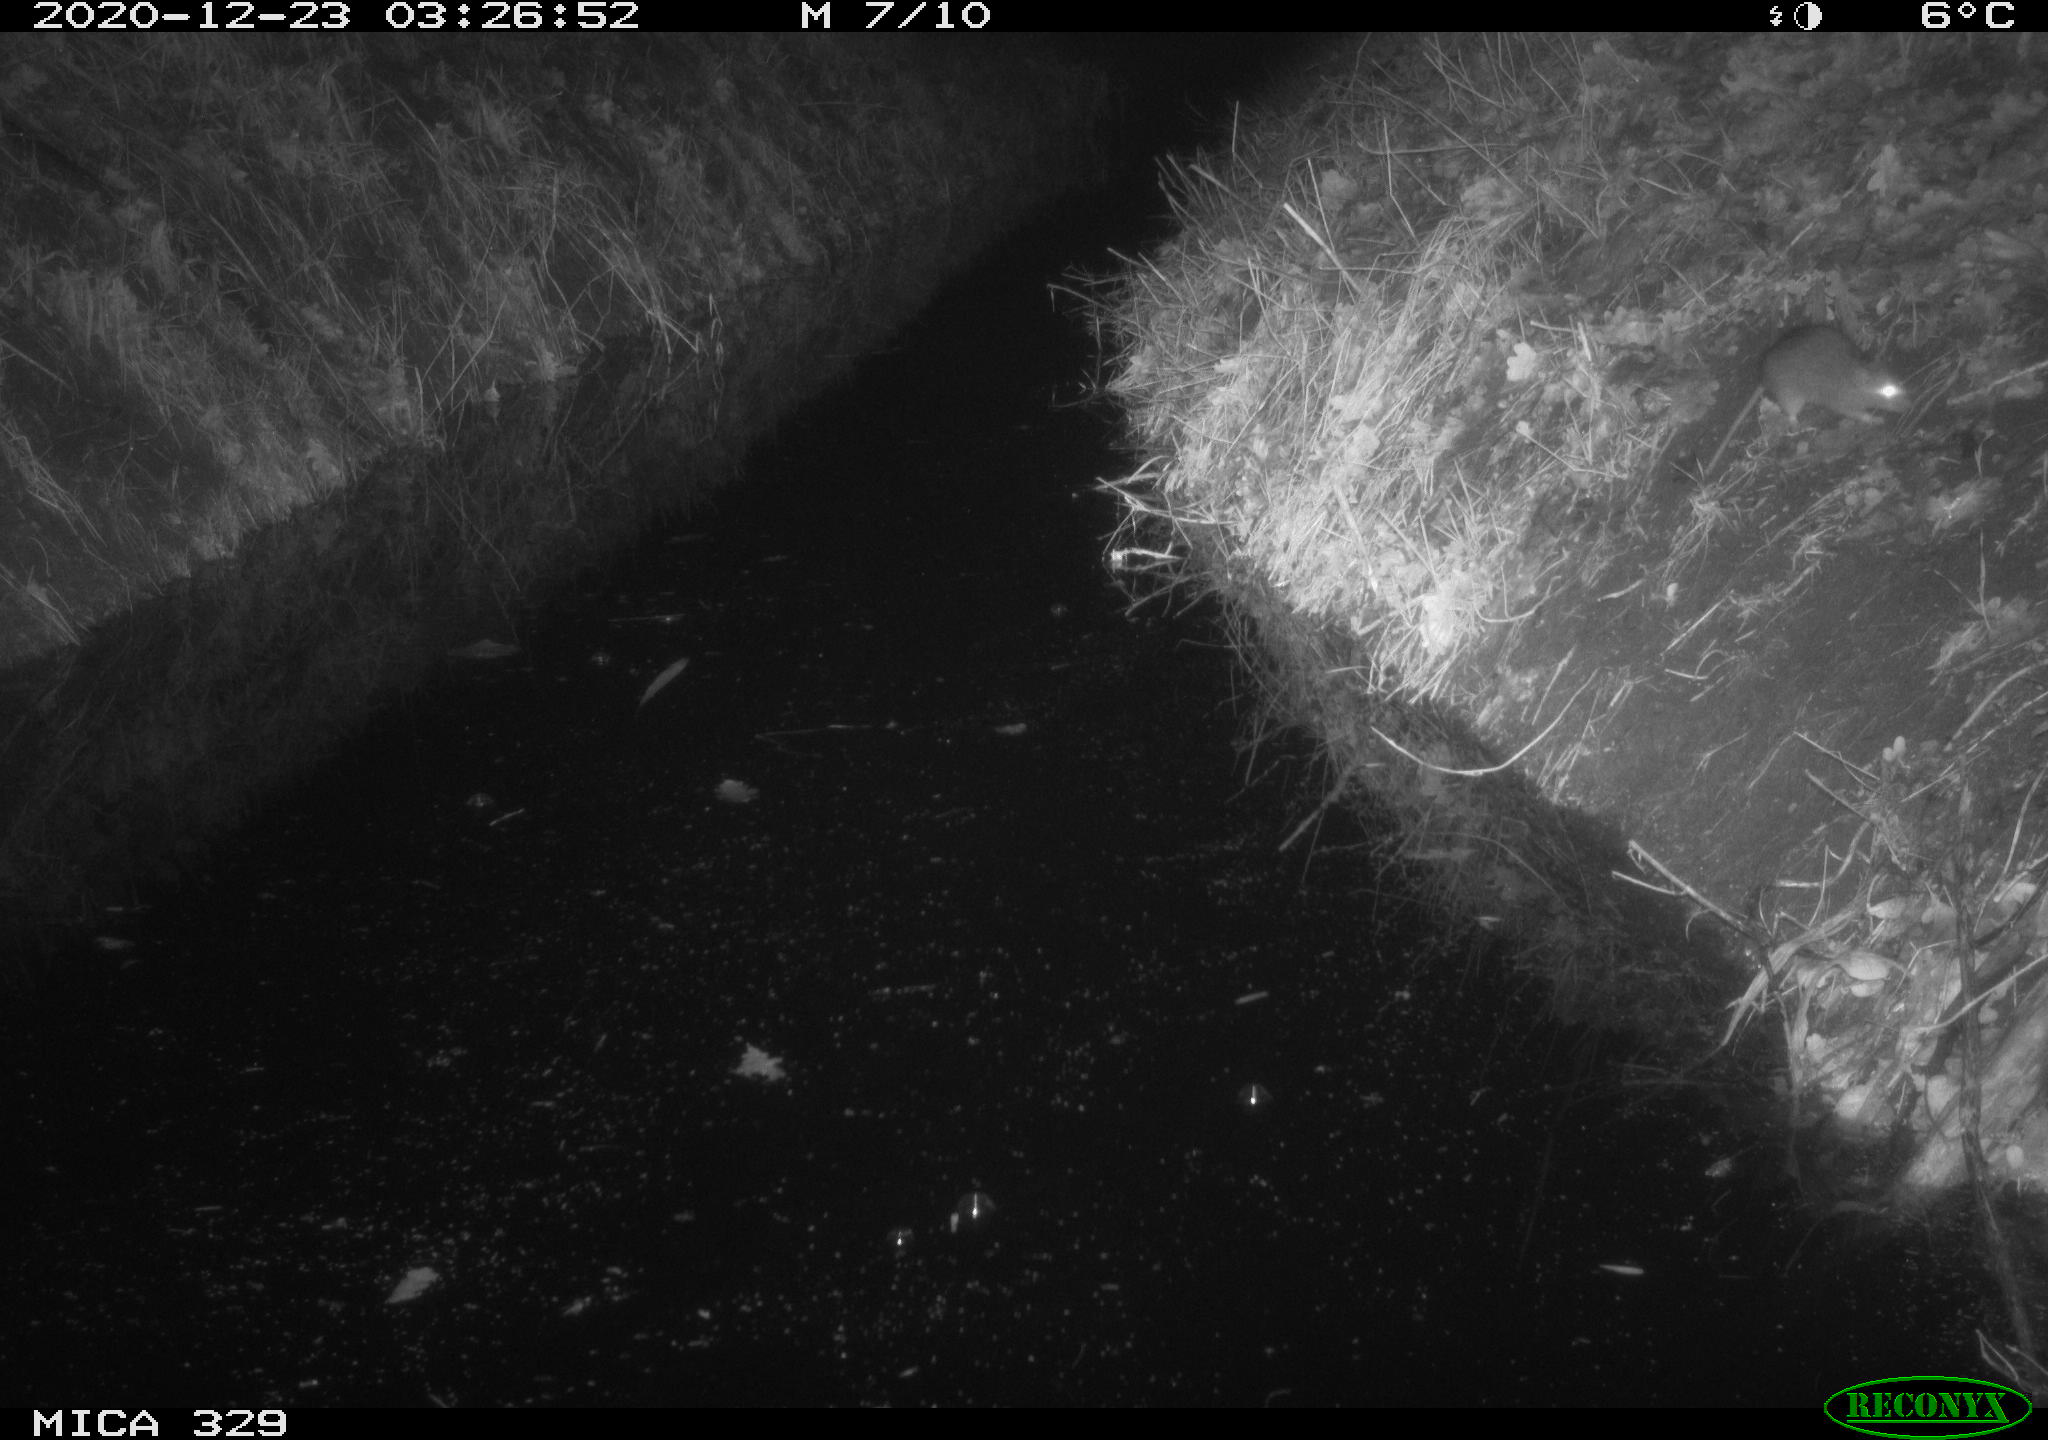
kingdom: Animalia
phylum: Chordata
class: Mammalia
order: Rodentia
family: Muridae
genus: Rattus
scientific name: Rattus norvegicus
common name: Brown rat
